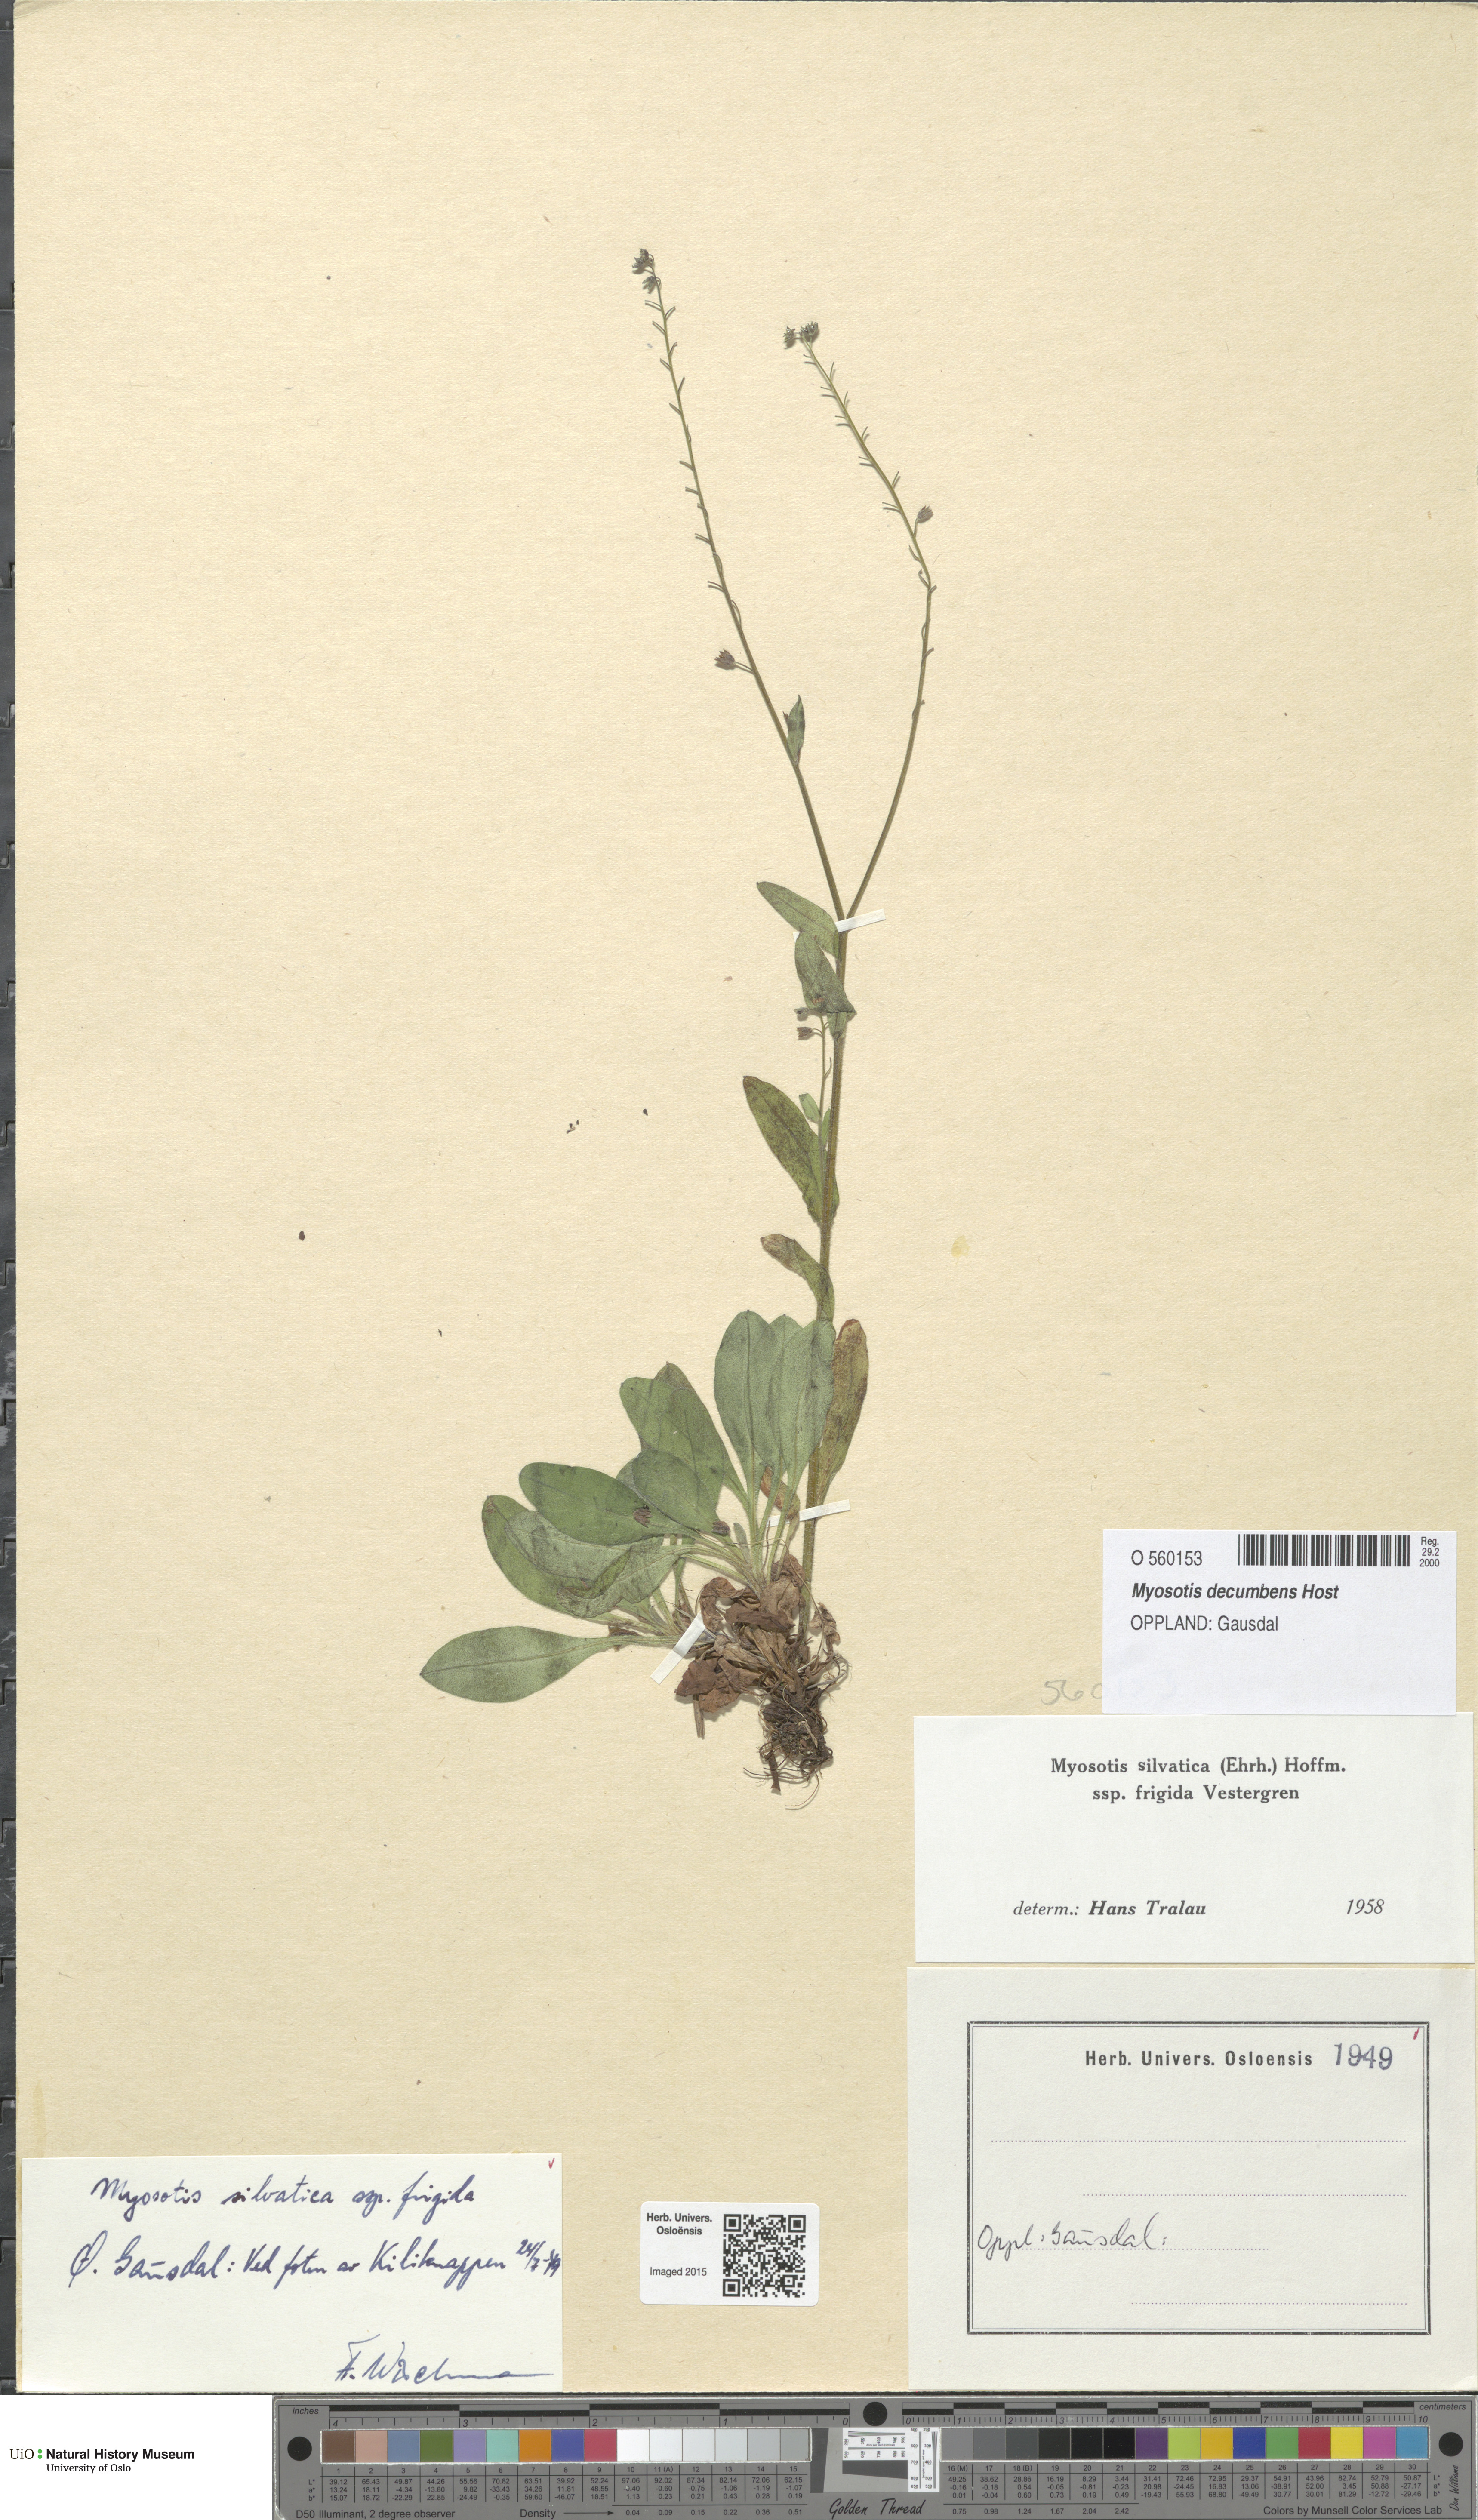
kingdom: Plantae
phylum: Tracheophyta
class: Magnoliopsida
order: Boraginales
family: Boraginaceae
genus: Myosotis
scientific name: Myosotis decumbens
